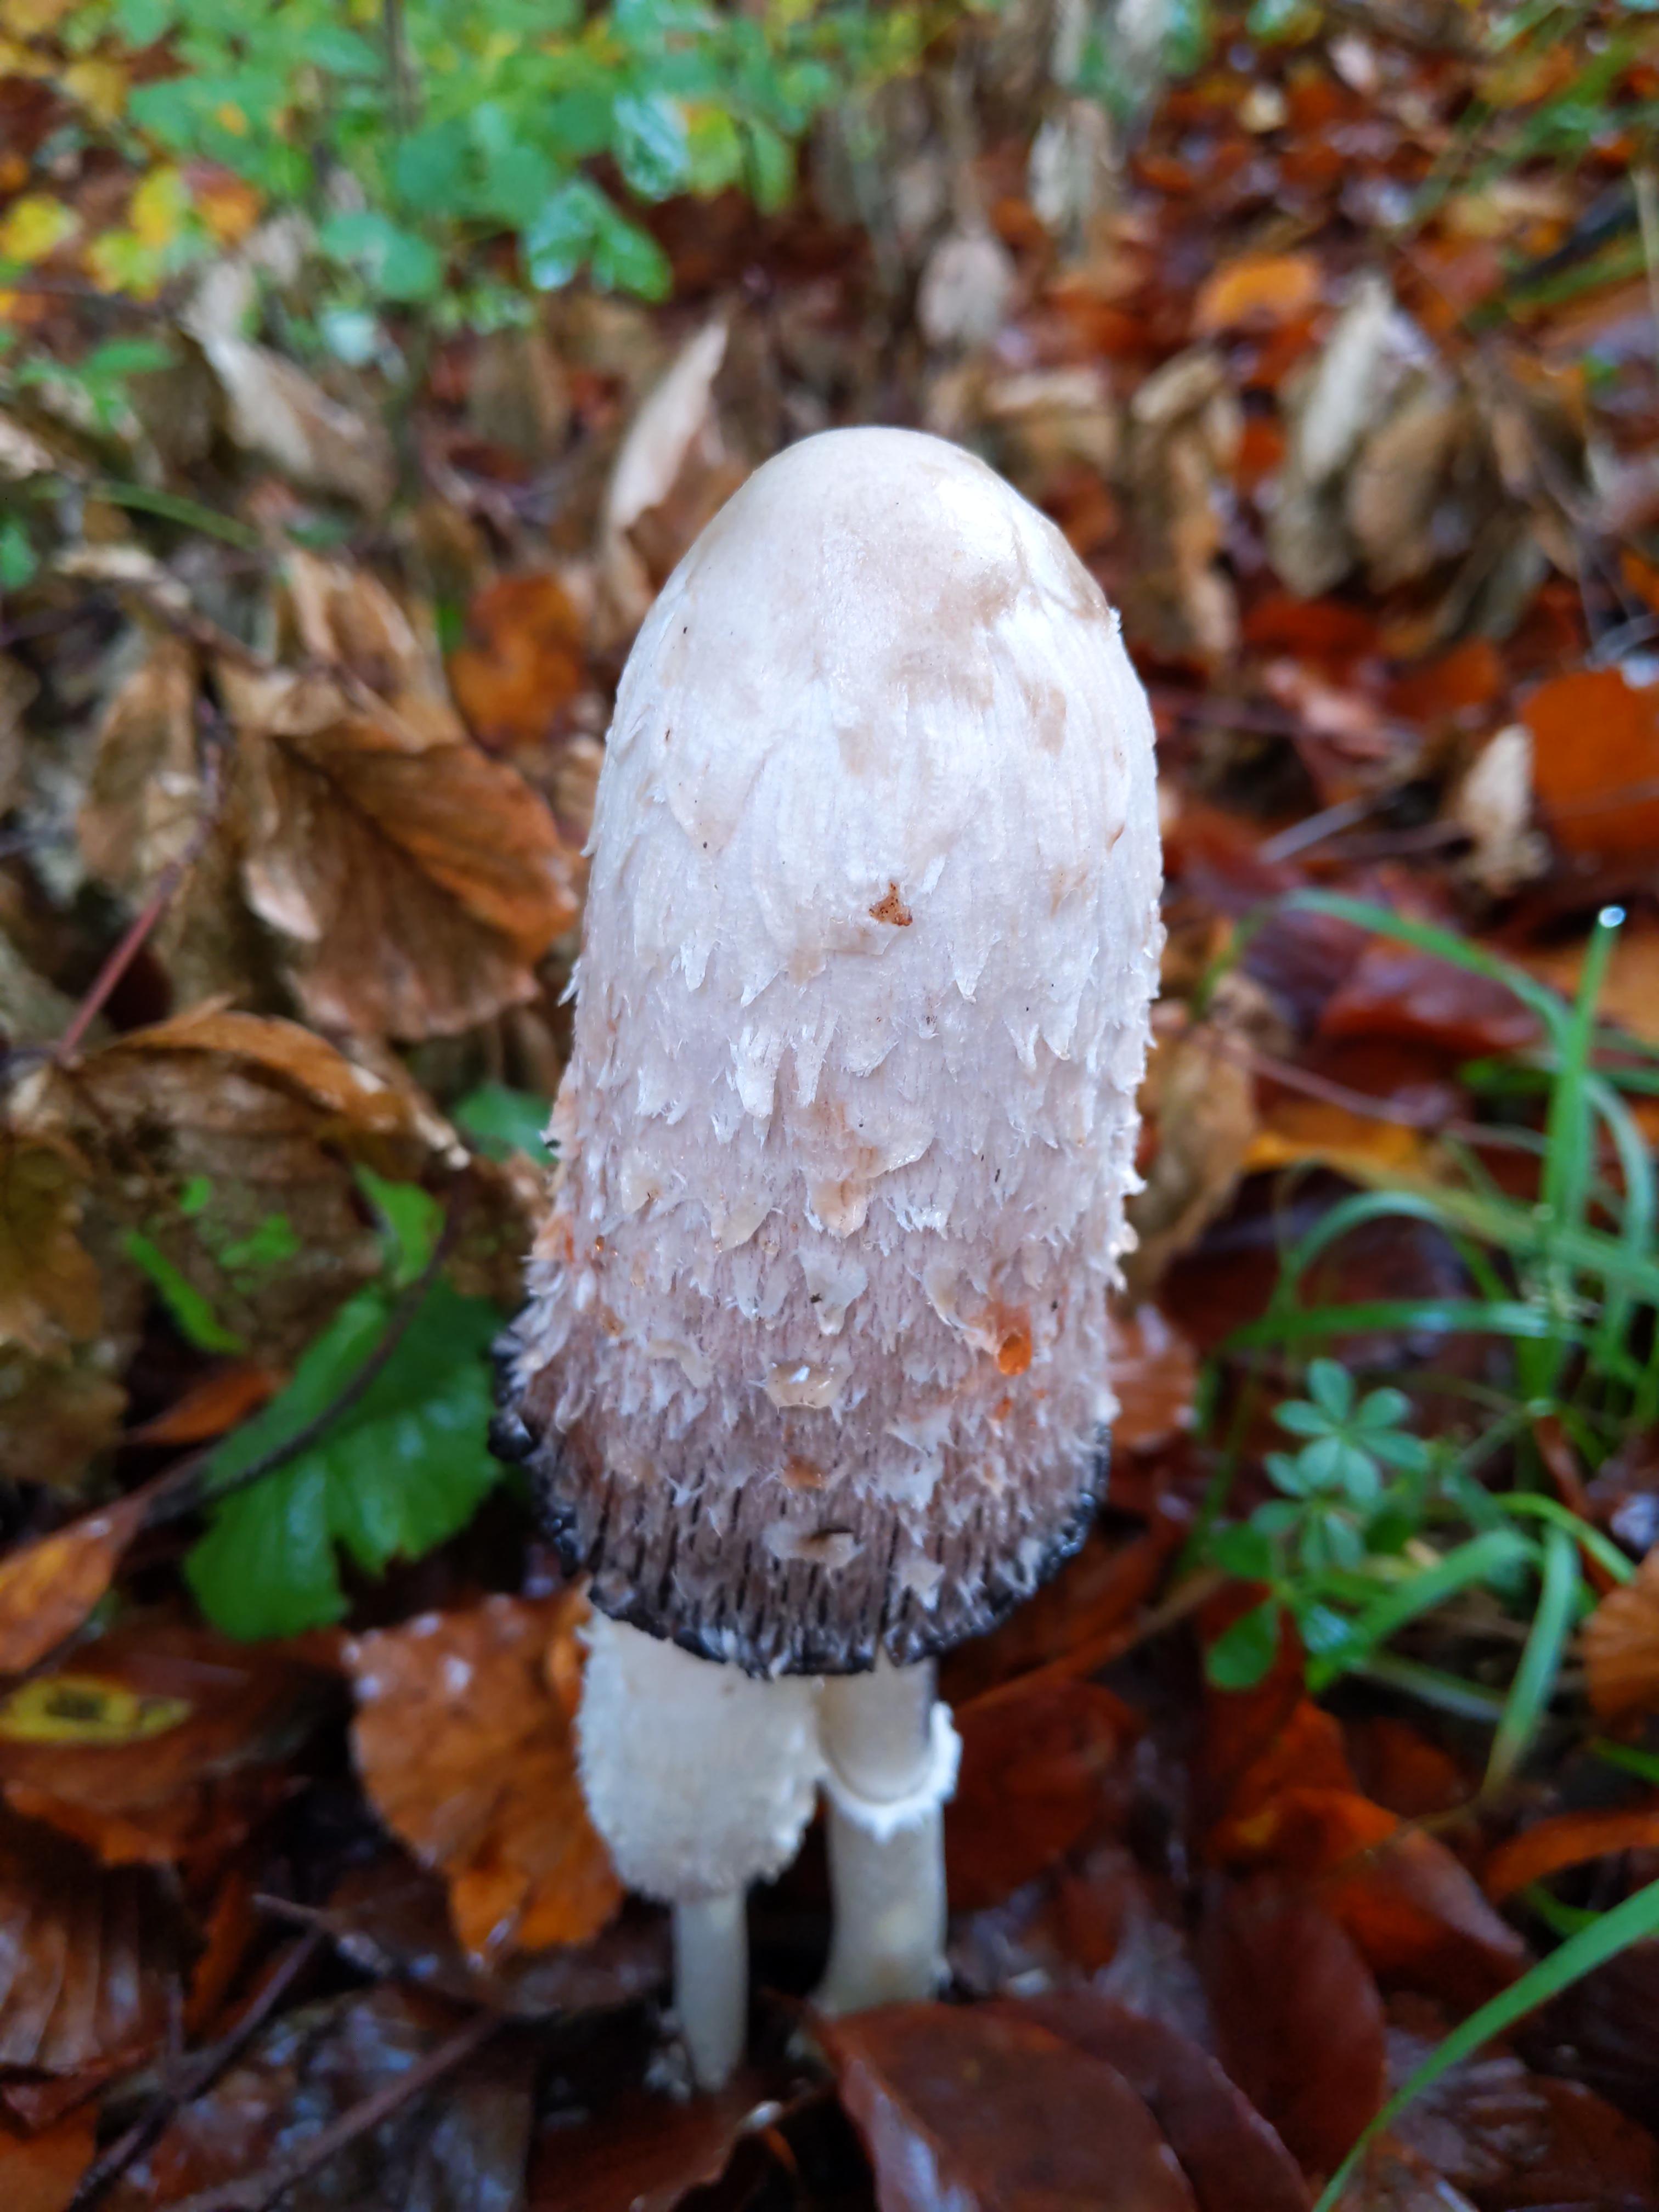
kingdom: Fungi
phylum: Basidiomycota
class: Agaricomycetes
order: Agaricales
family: Agaricaceae
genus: Coprinus
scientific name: Coprinus comatus
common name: stor parykhat
